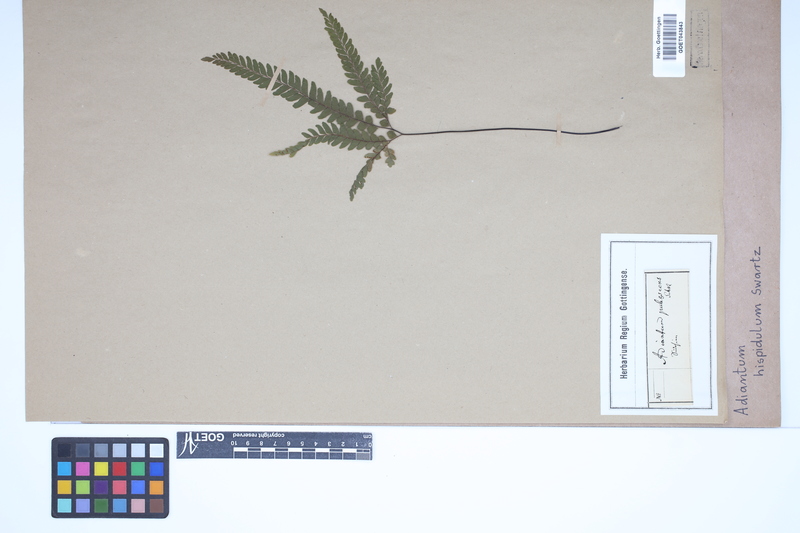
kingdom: Plantae
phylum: Tracheophyta
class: Polypodiopsida
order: Polypodiales
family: Pteridaceae
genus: Adiantum
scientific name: Adiantum hispidulum
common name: Rough maidenhair
